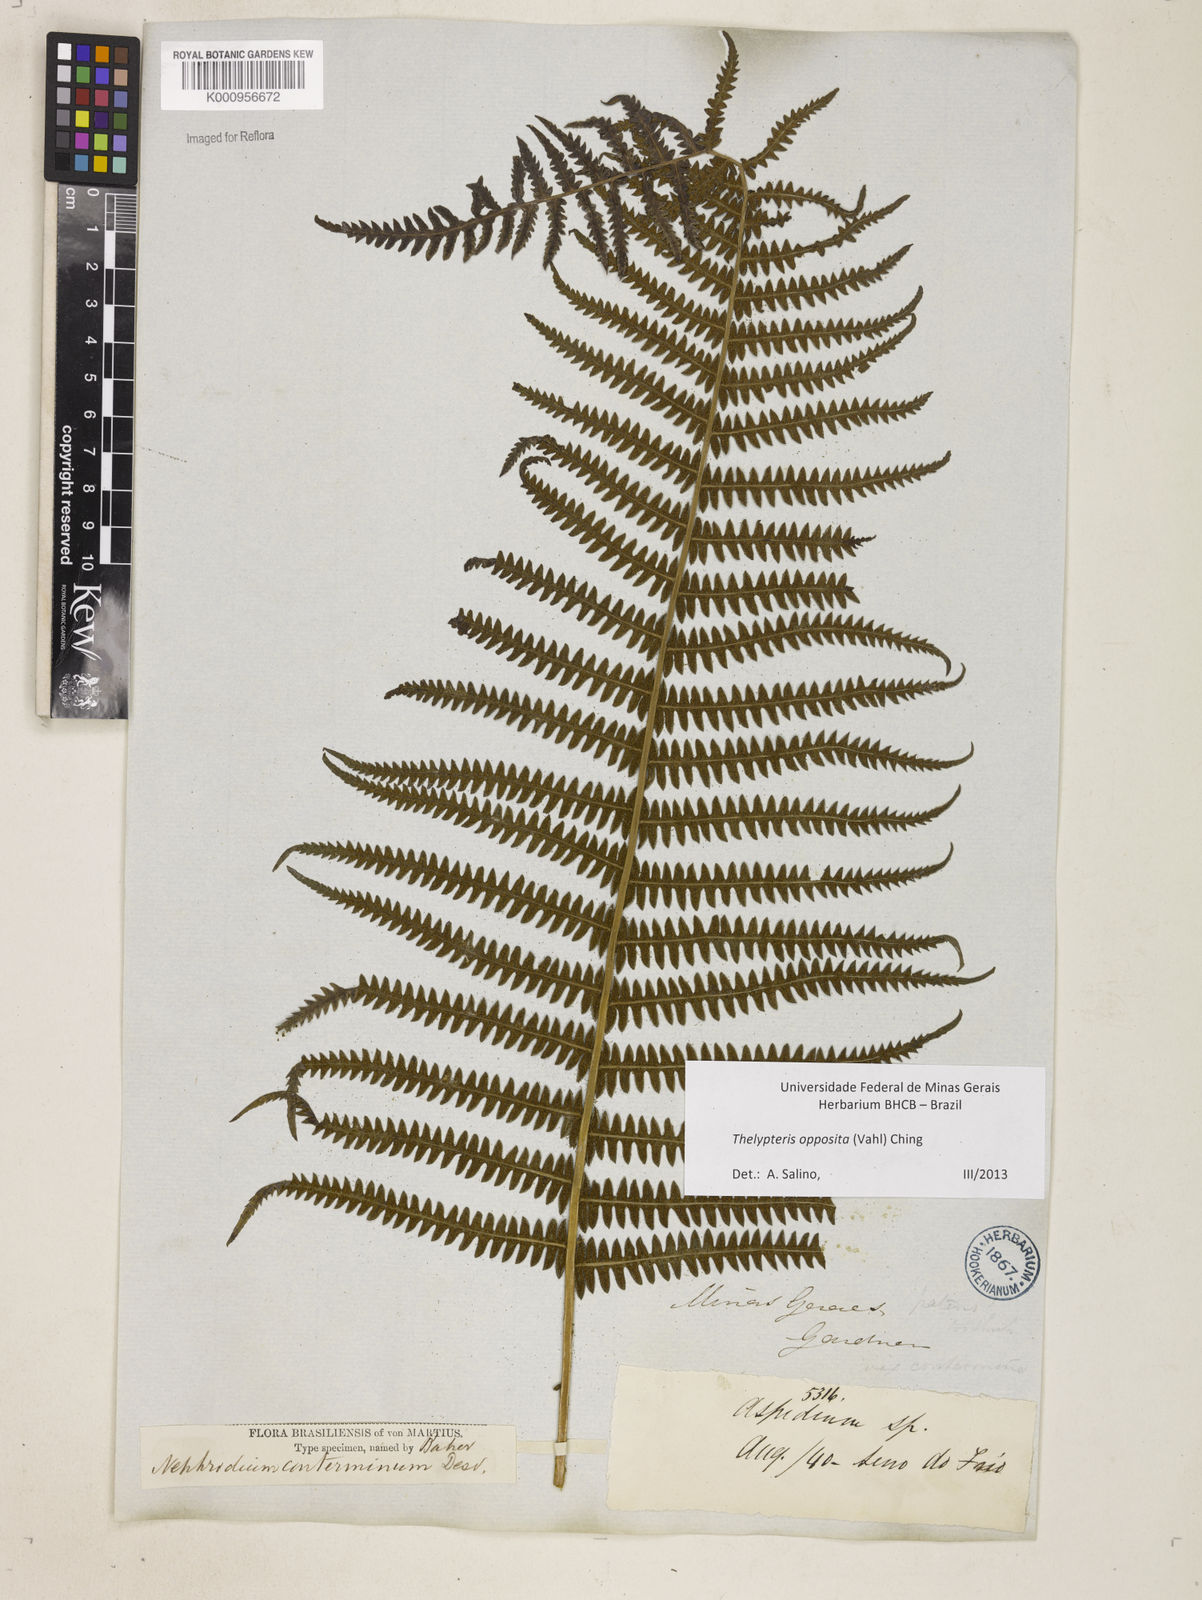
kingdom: Plantae
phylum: Tracheophyta
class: Polypodiopsida
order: Polypodiales
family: Thelypteridaceae
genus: Amauropelta
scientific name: Amauropelta opposita
